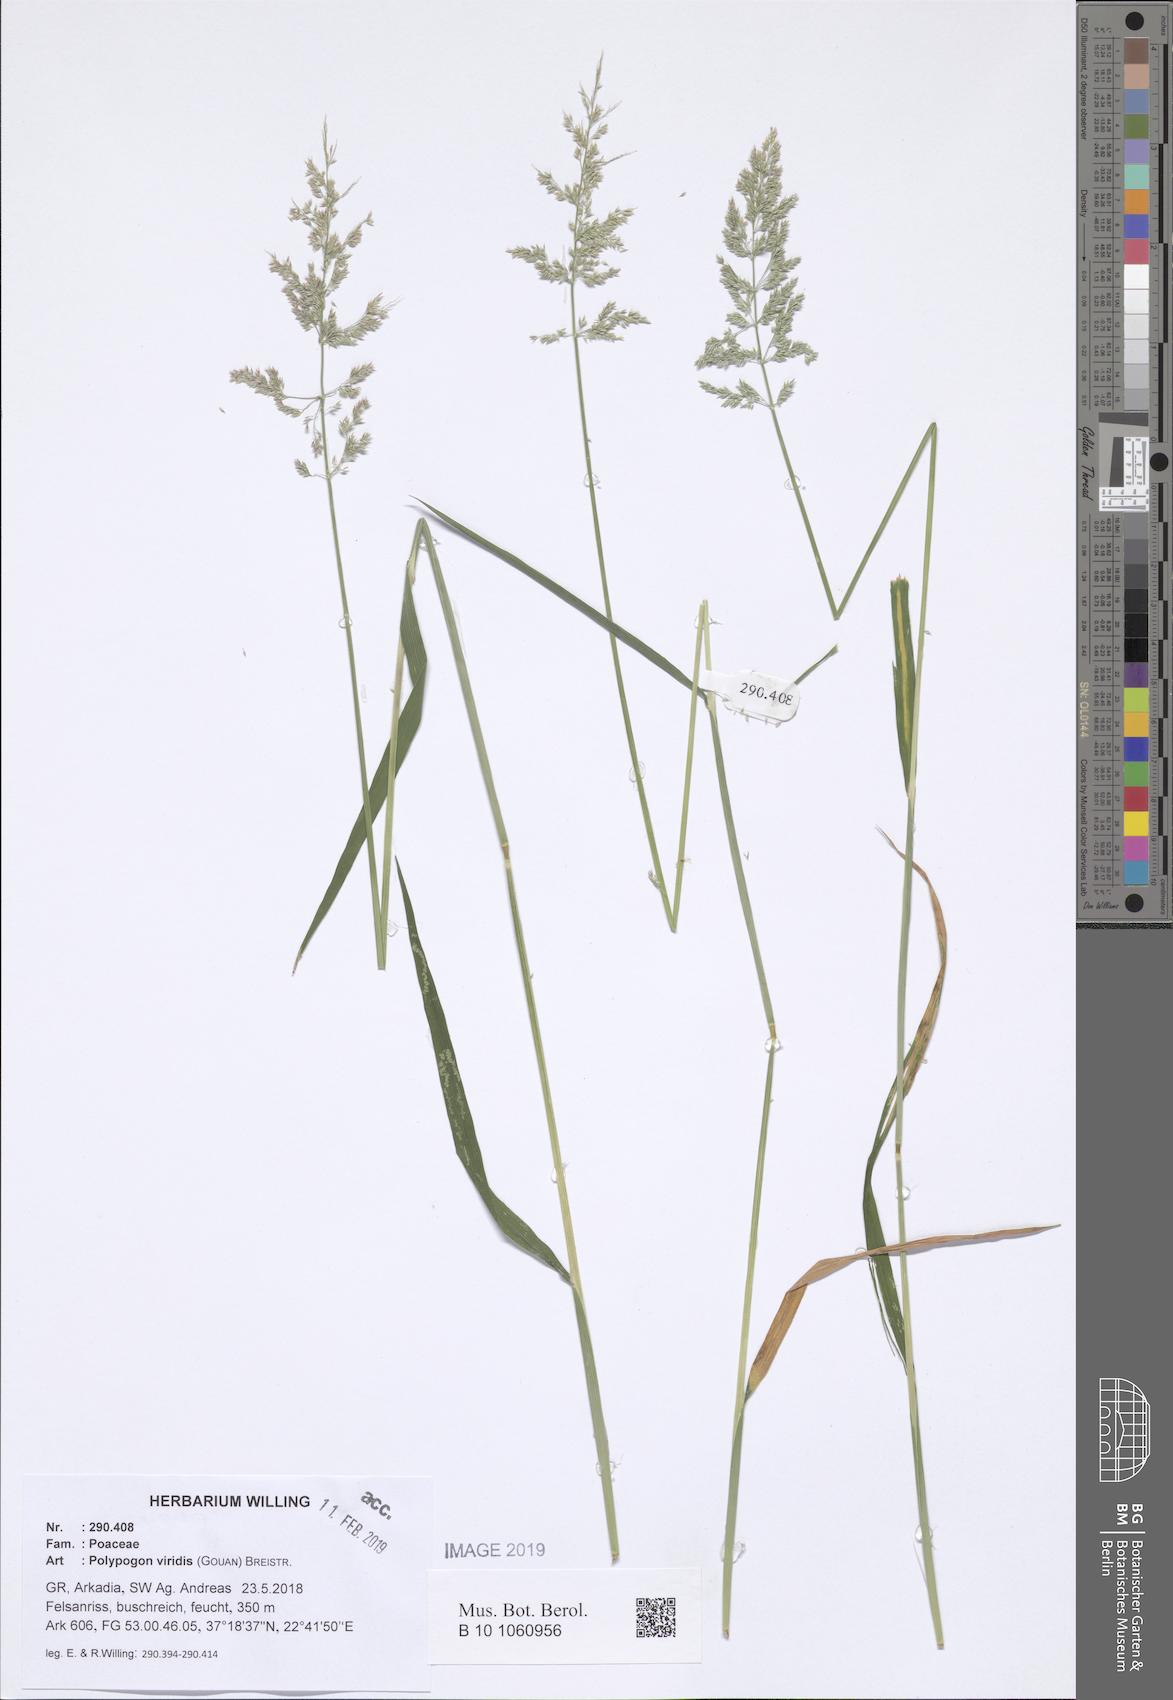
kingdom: Plantae
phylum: Tracheophyta
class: Liliopsida
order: Poales
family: Poaceae
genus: Polypogon
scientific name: Polypogon viridis
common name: Water bent
